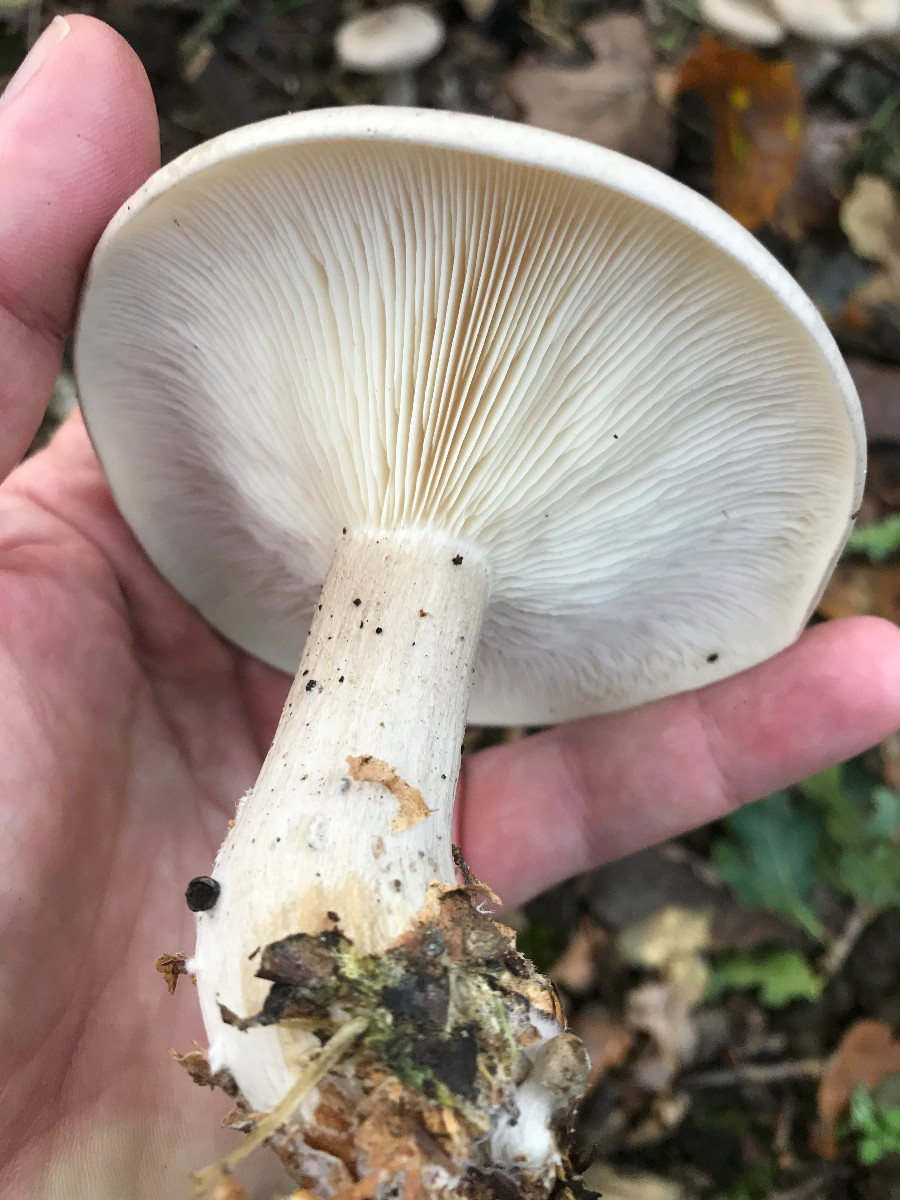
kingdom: Fungi
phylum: Basidiomycota
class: Agaricomycetes
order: Agaricales
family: Tricholomataceae
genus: Clitocybe
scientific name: Clitocybe nebularis
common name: tåge-tragthat
